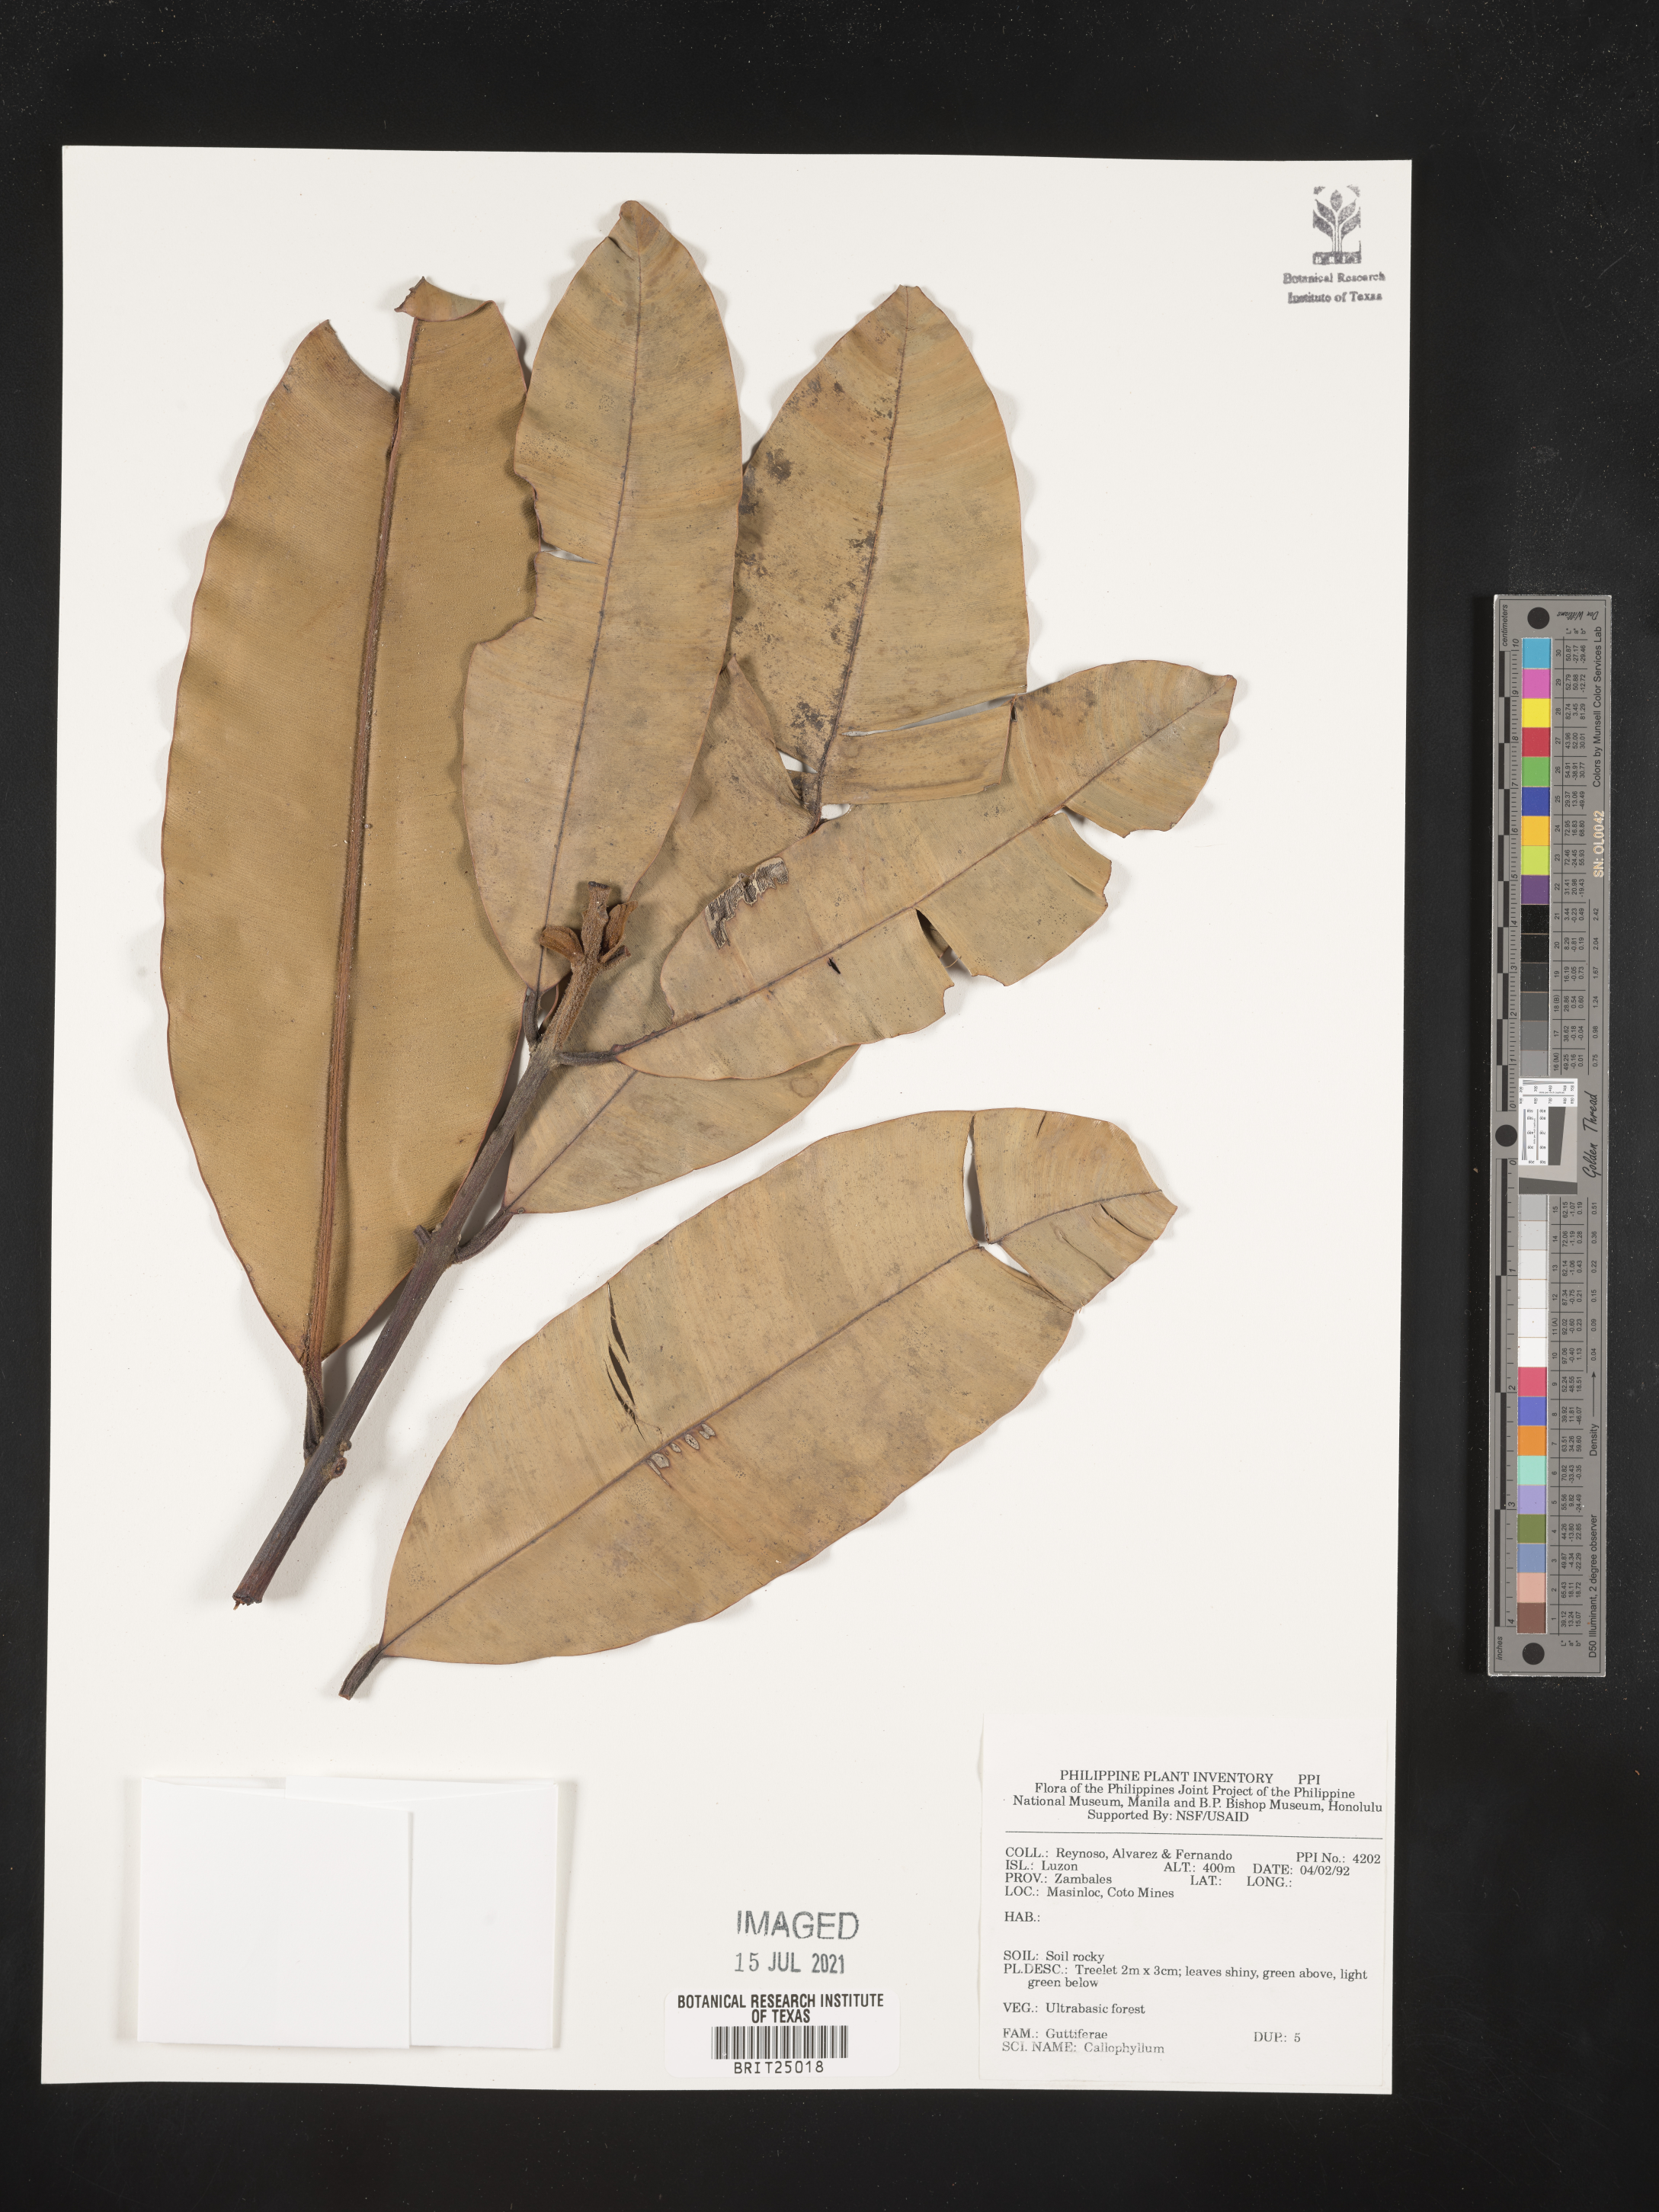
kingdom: Plantae
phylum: Tracheophyta
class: Magnoliopsida
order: Malpighiales
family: Calophyllaceae
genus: Calophyllum
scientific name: Calophyllum
